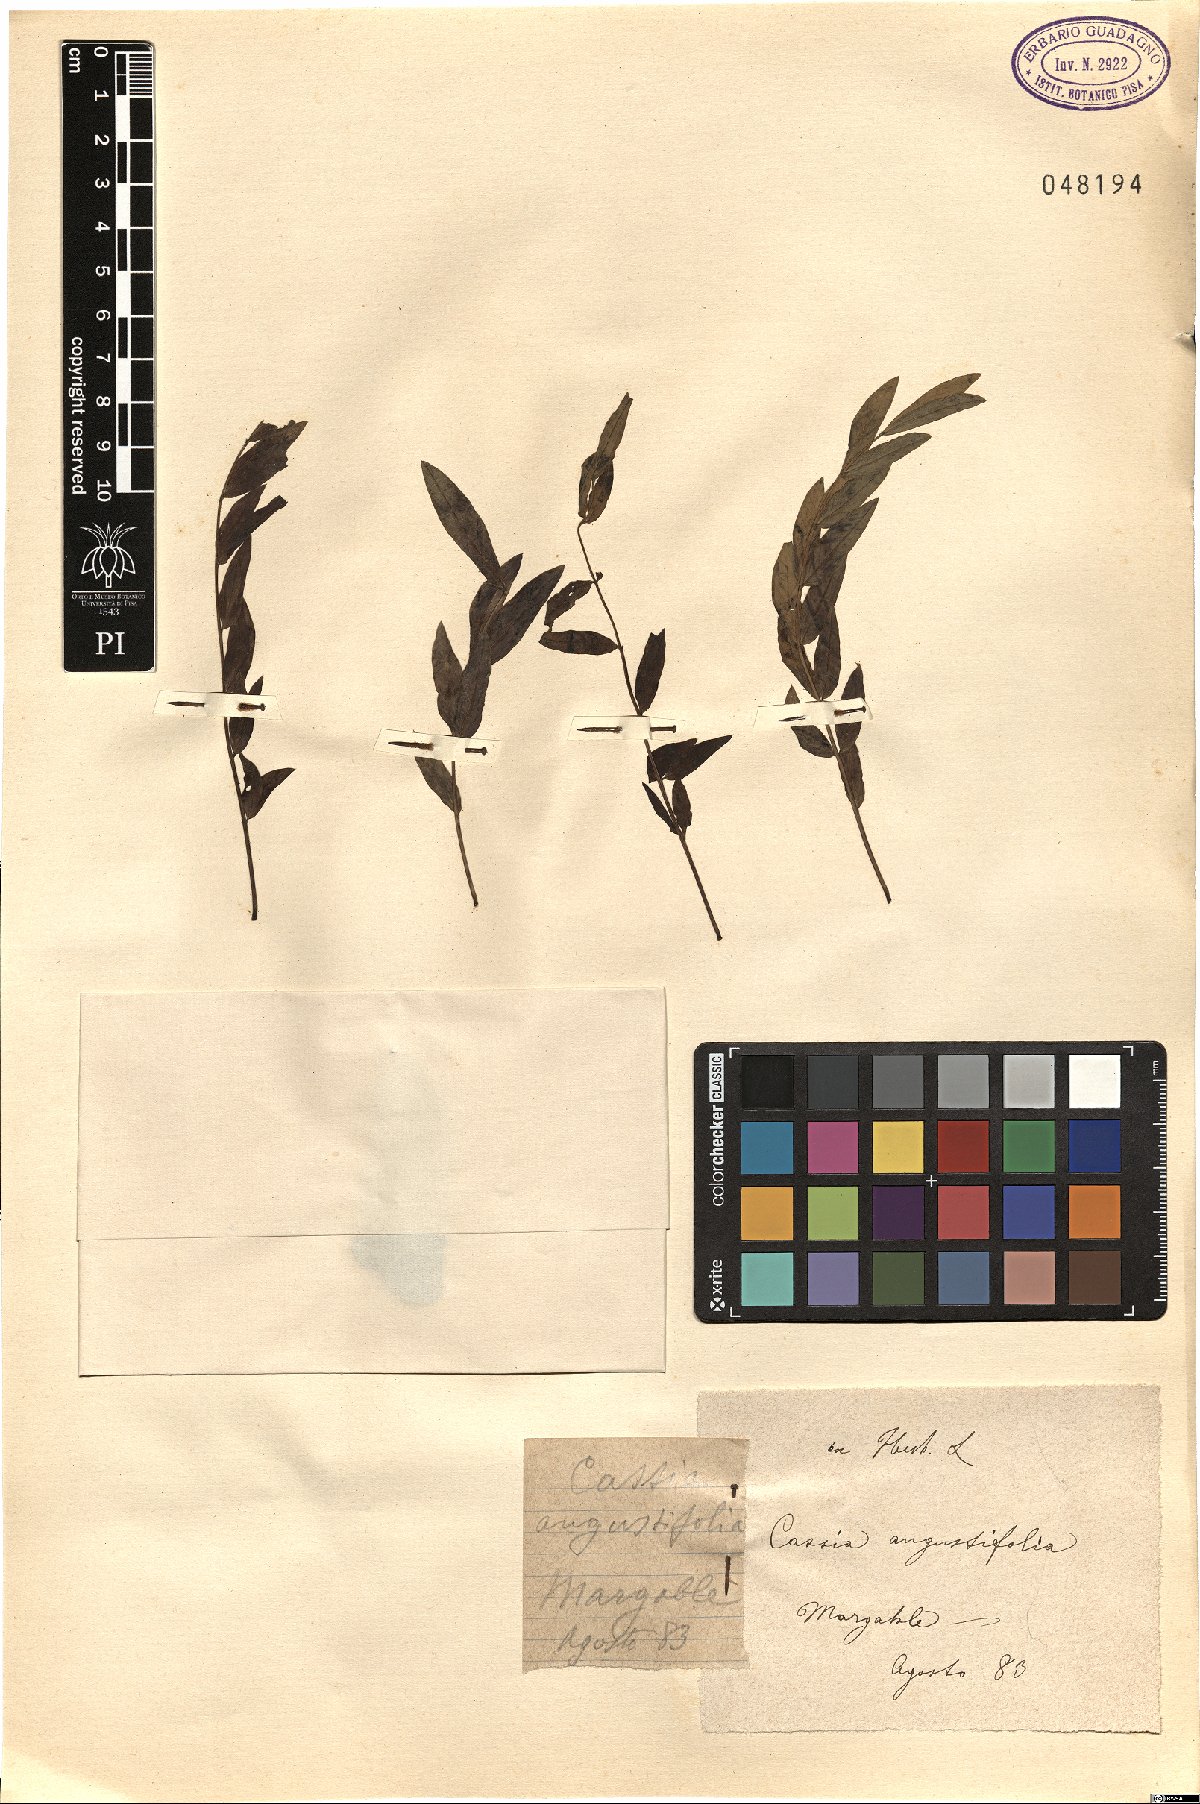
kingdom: Plantae
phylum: Tracheophyta
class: Magnoliopsida
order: Fabales
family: Fabaceae
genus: Senna
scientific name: Senna alexandrina
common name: True senna
